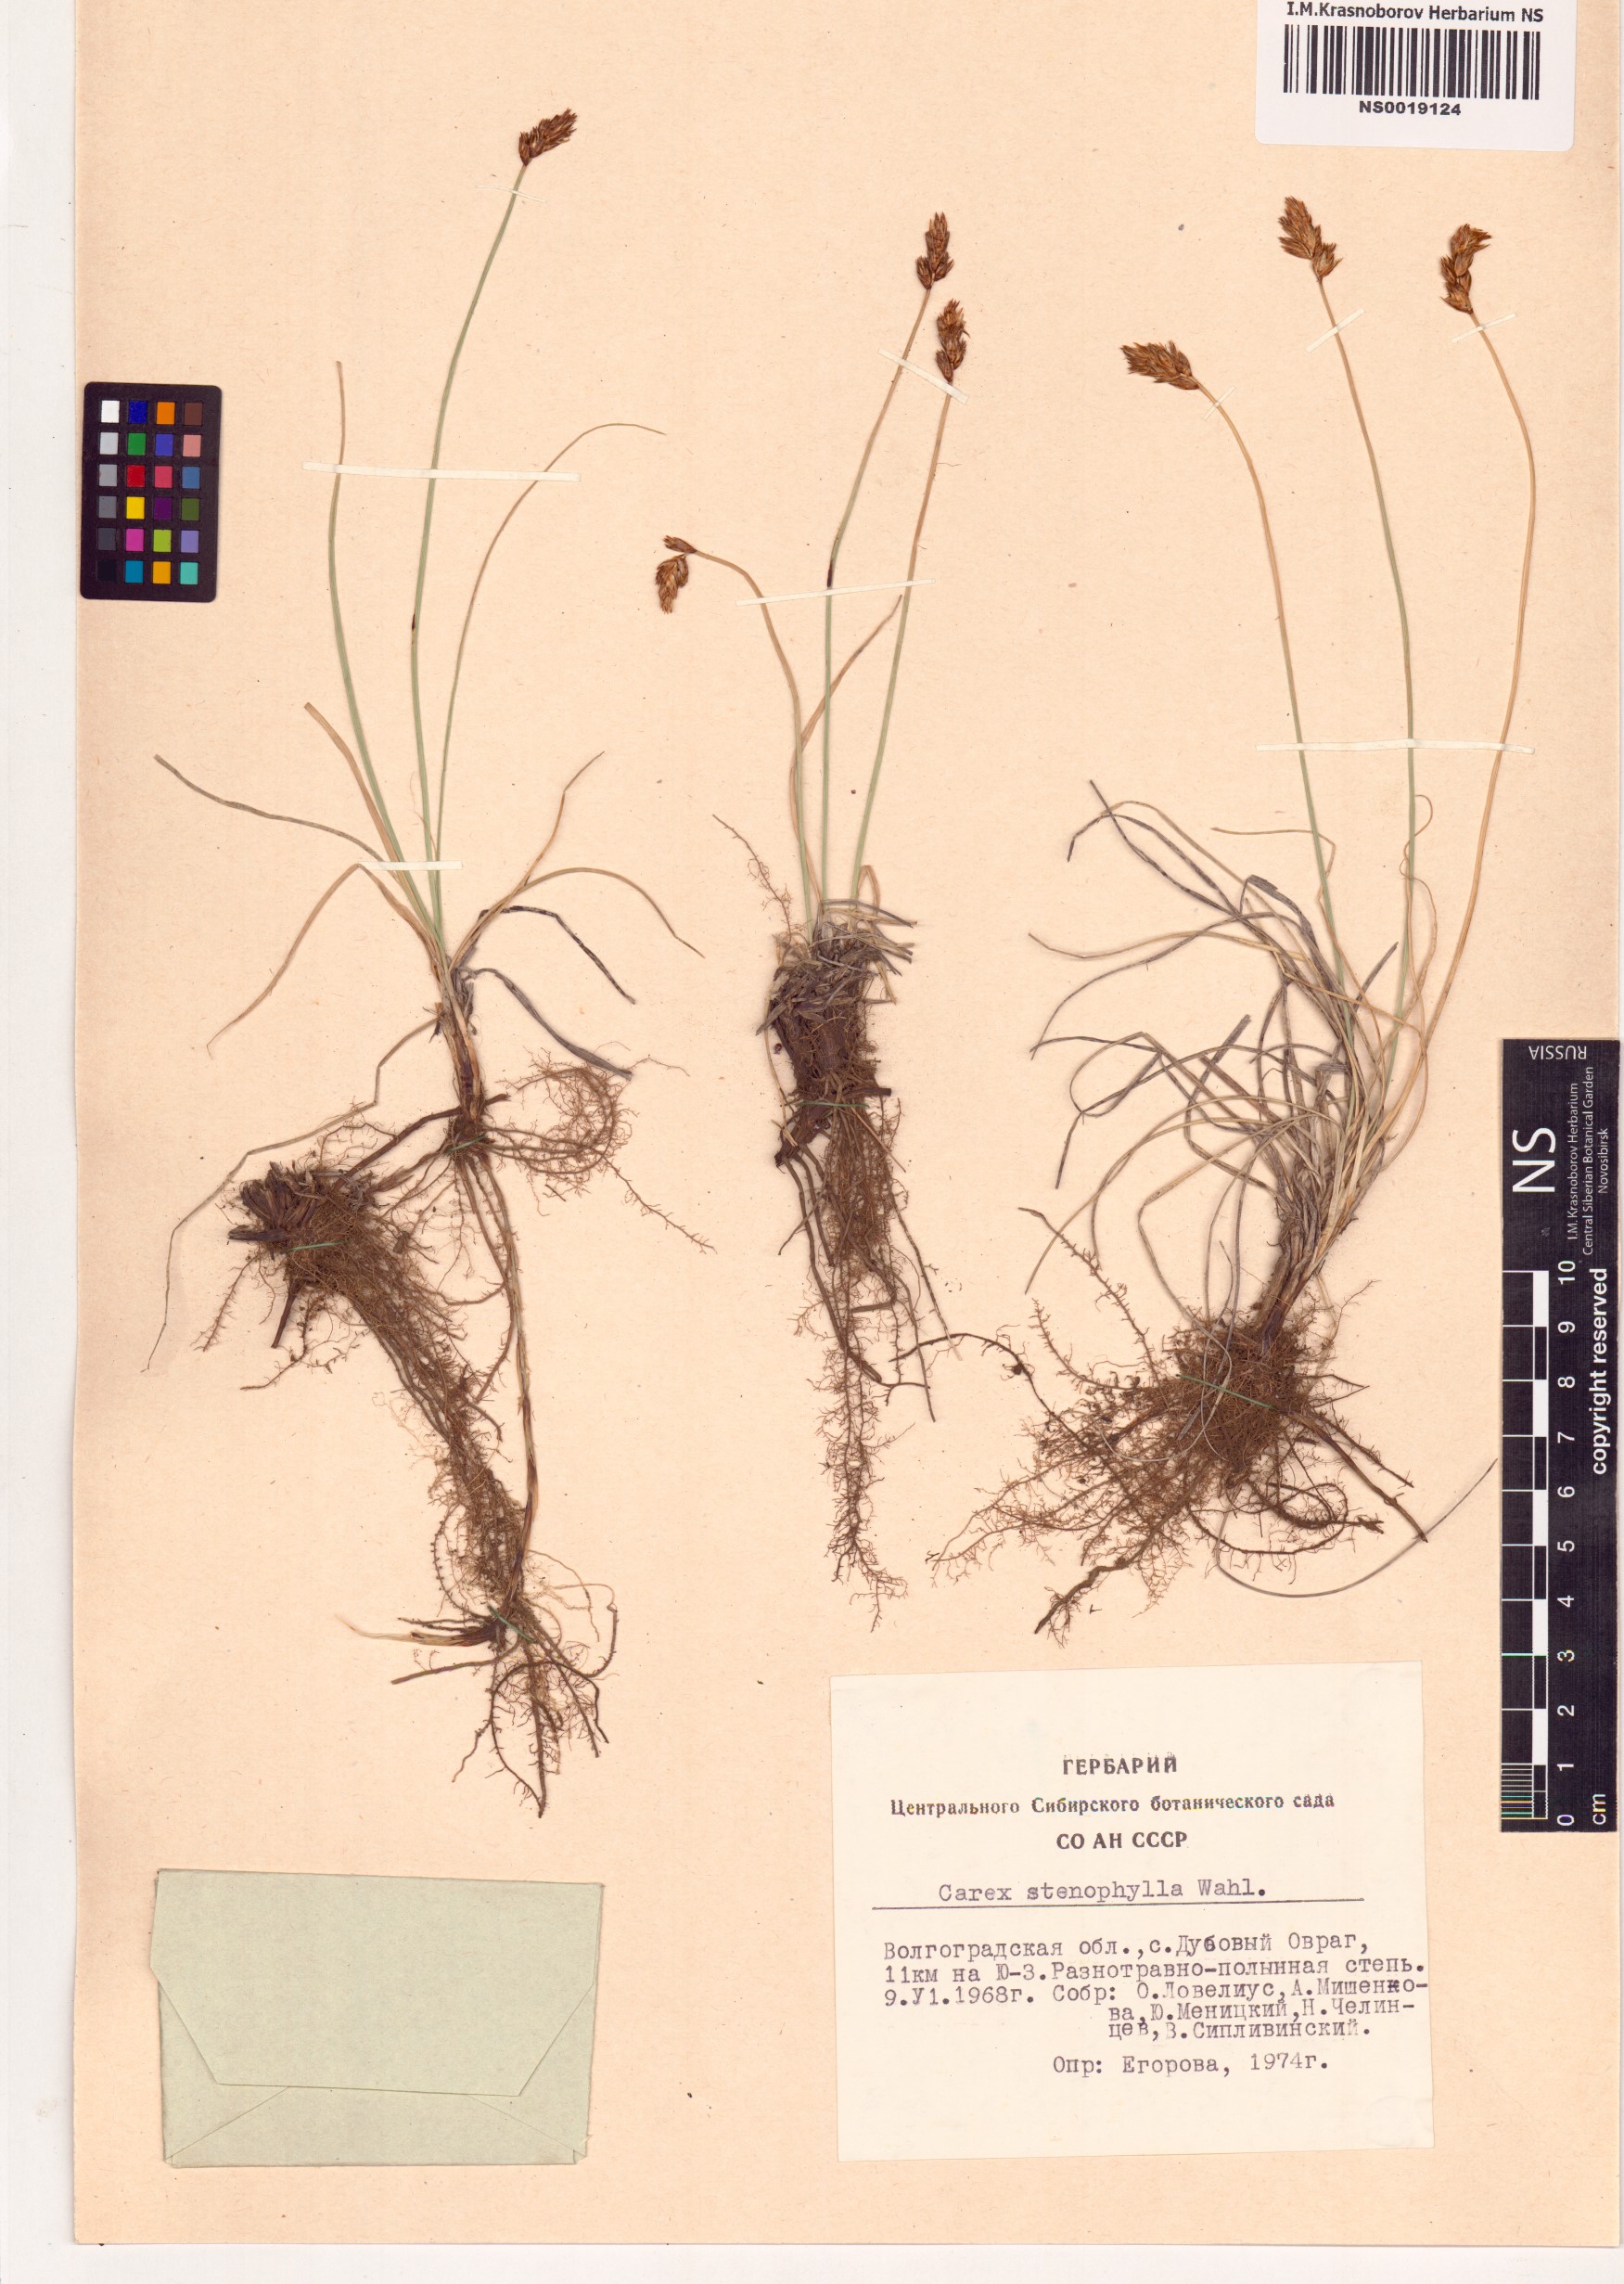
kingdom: Plantae
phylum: Tracheophyta
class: Liliopsida
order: Poales
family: Cyperaceae
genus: Carex
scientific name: Carex stenophylla
